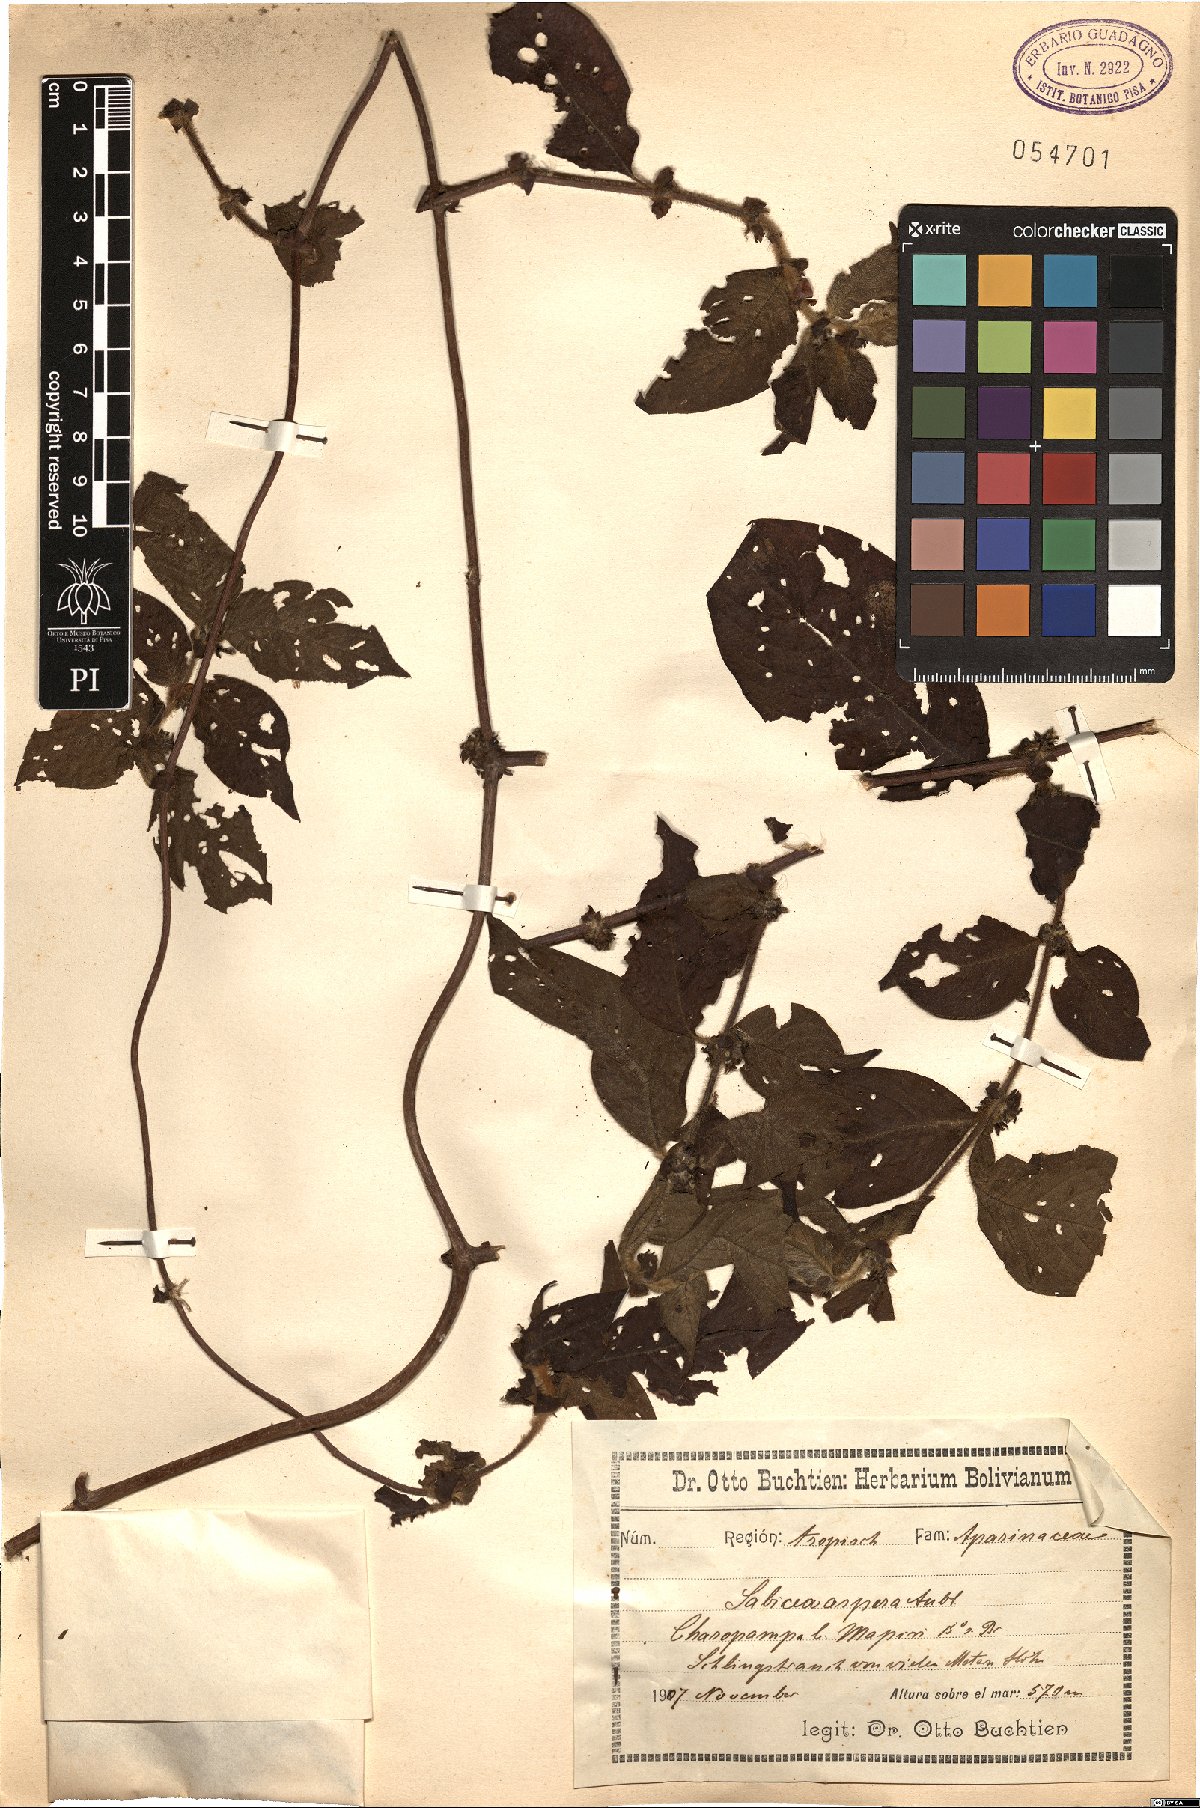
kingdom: Plantae
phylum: Tracheophyta
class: Magnoliopsida
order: Gentianales
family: Rubiaceae
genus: Sabicea
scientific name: Sabicea aspera
